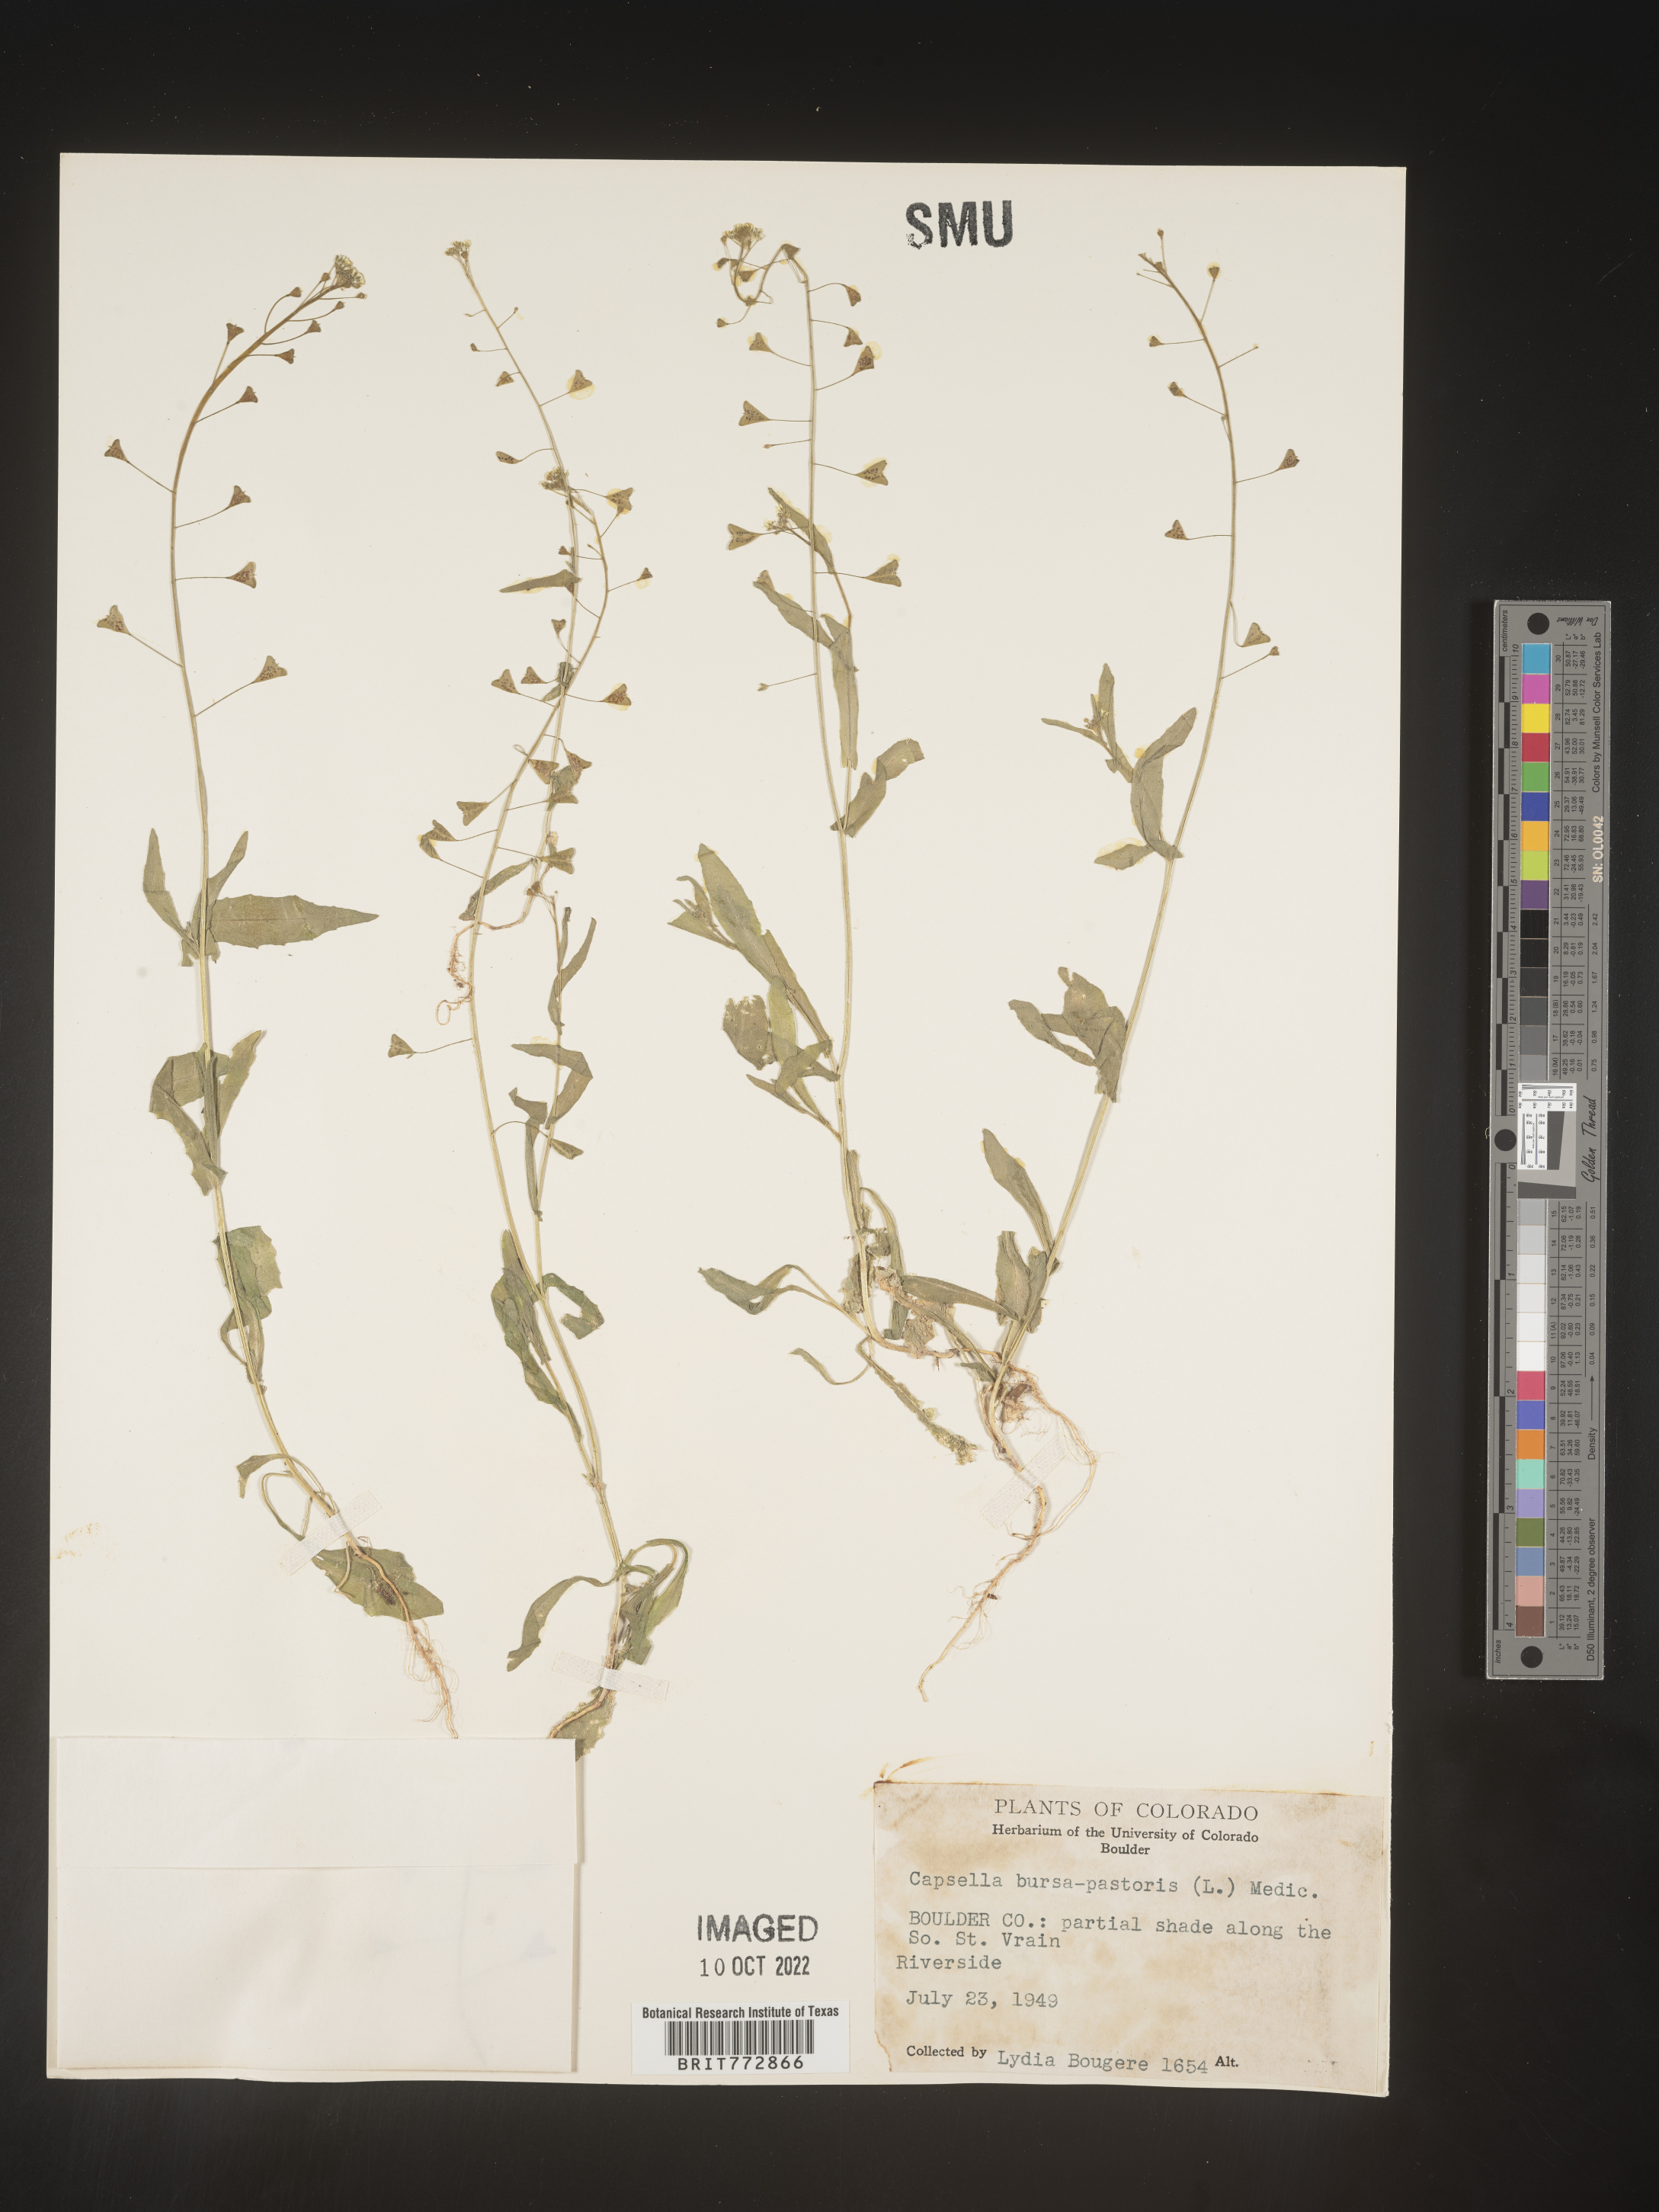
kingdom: Plantae
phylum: Tracheophyta
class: Magnoliopsida
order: Brassicales
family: Brassicaceae
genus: Capsella
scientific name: Capsella bursa-pastoris
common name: Shepherd's purse
